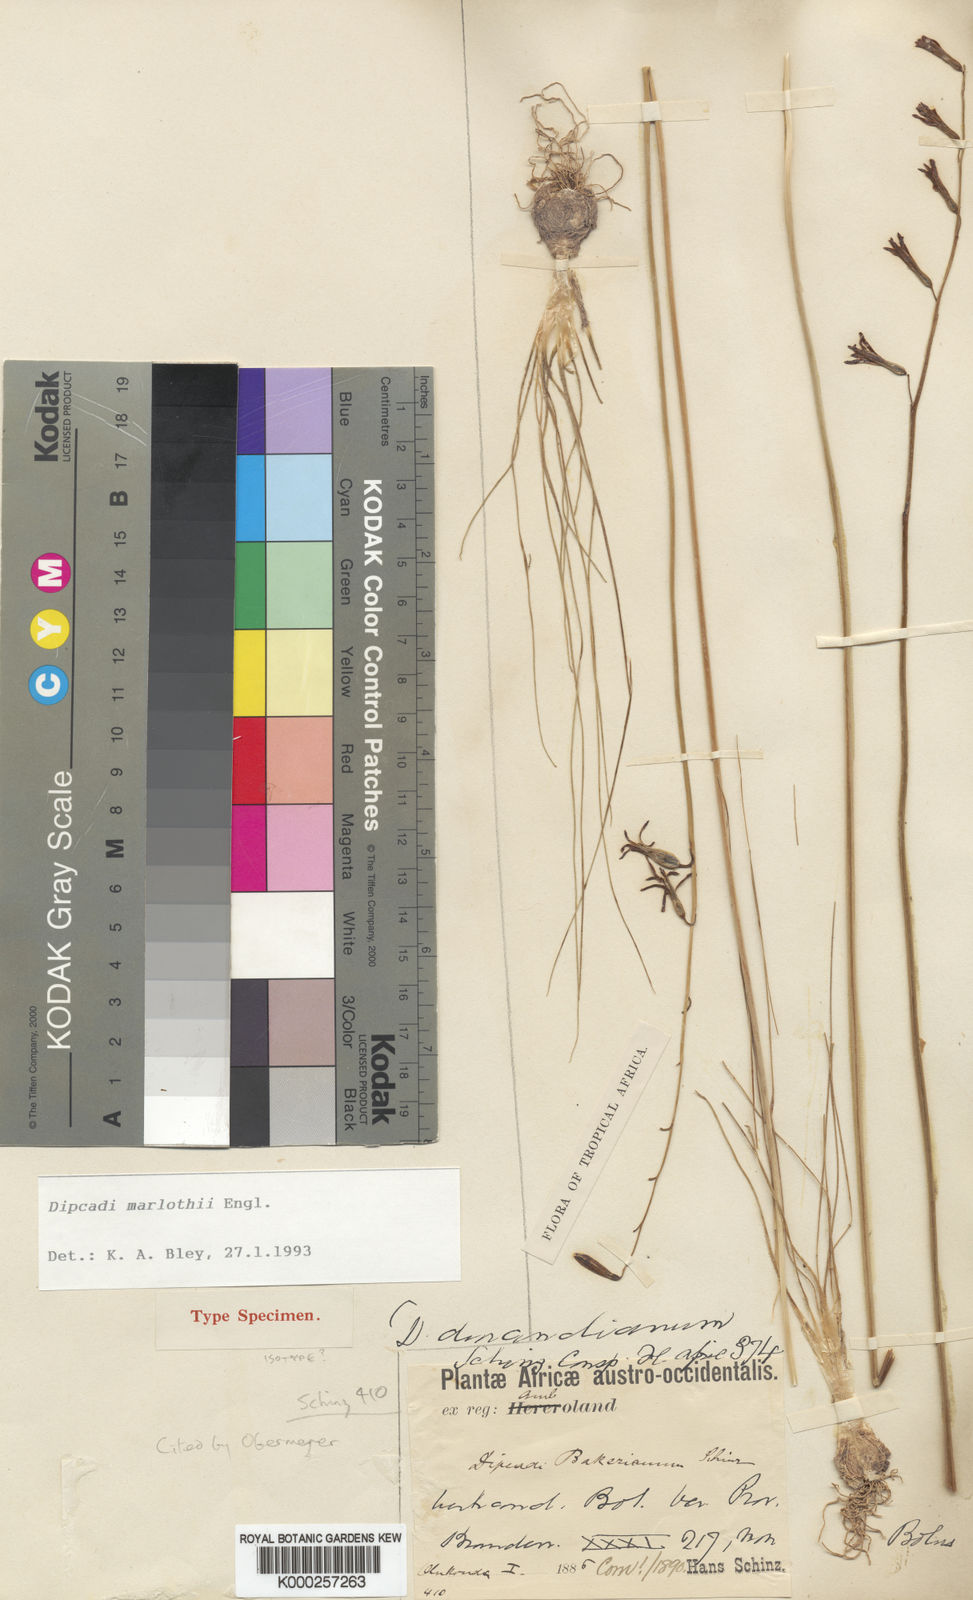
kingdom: Plantae
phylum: Tracheophyta
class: Liliopsida
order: Asparagales
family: Asparagaceae
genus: Dipcadi
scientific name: Dipcadi marlothii
